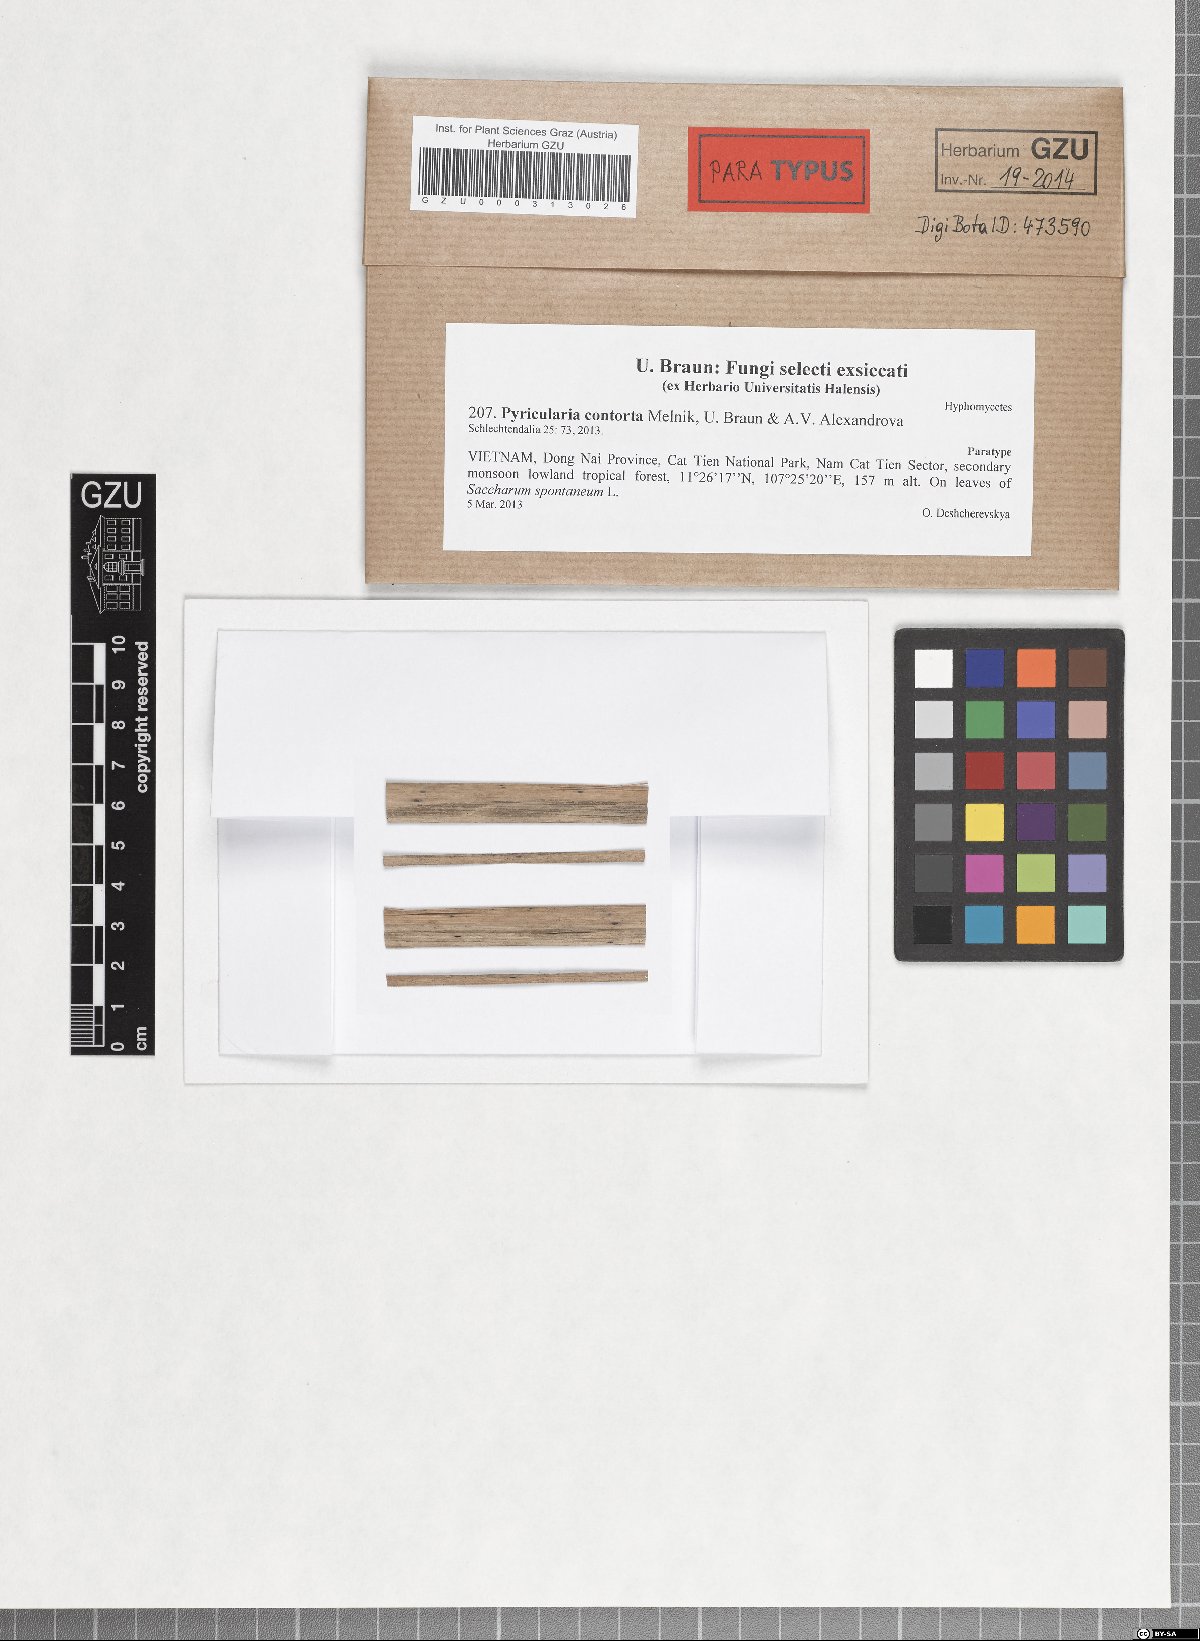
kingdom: Fungi
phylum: Ascomycota
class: Sordariomycetes
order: Magnaporthales
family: Pyriculariaceae
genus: Pyricularia
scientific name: Pyricularia contorta
